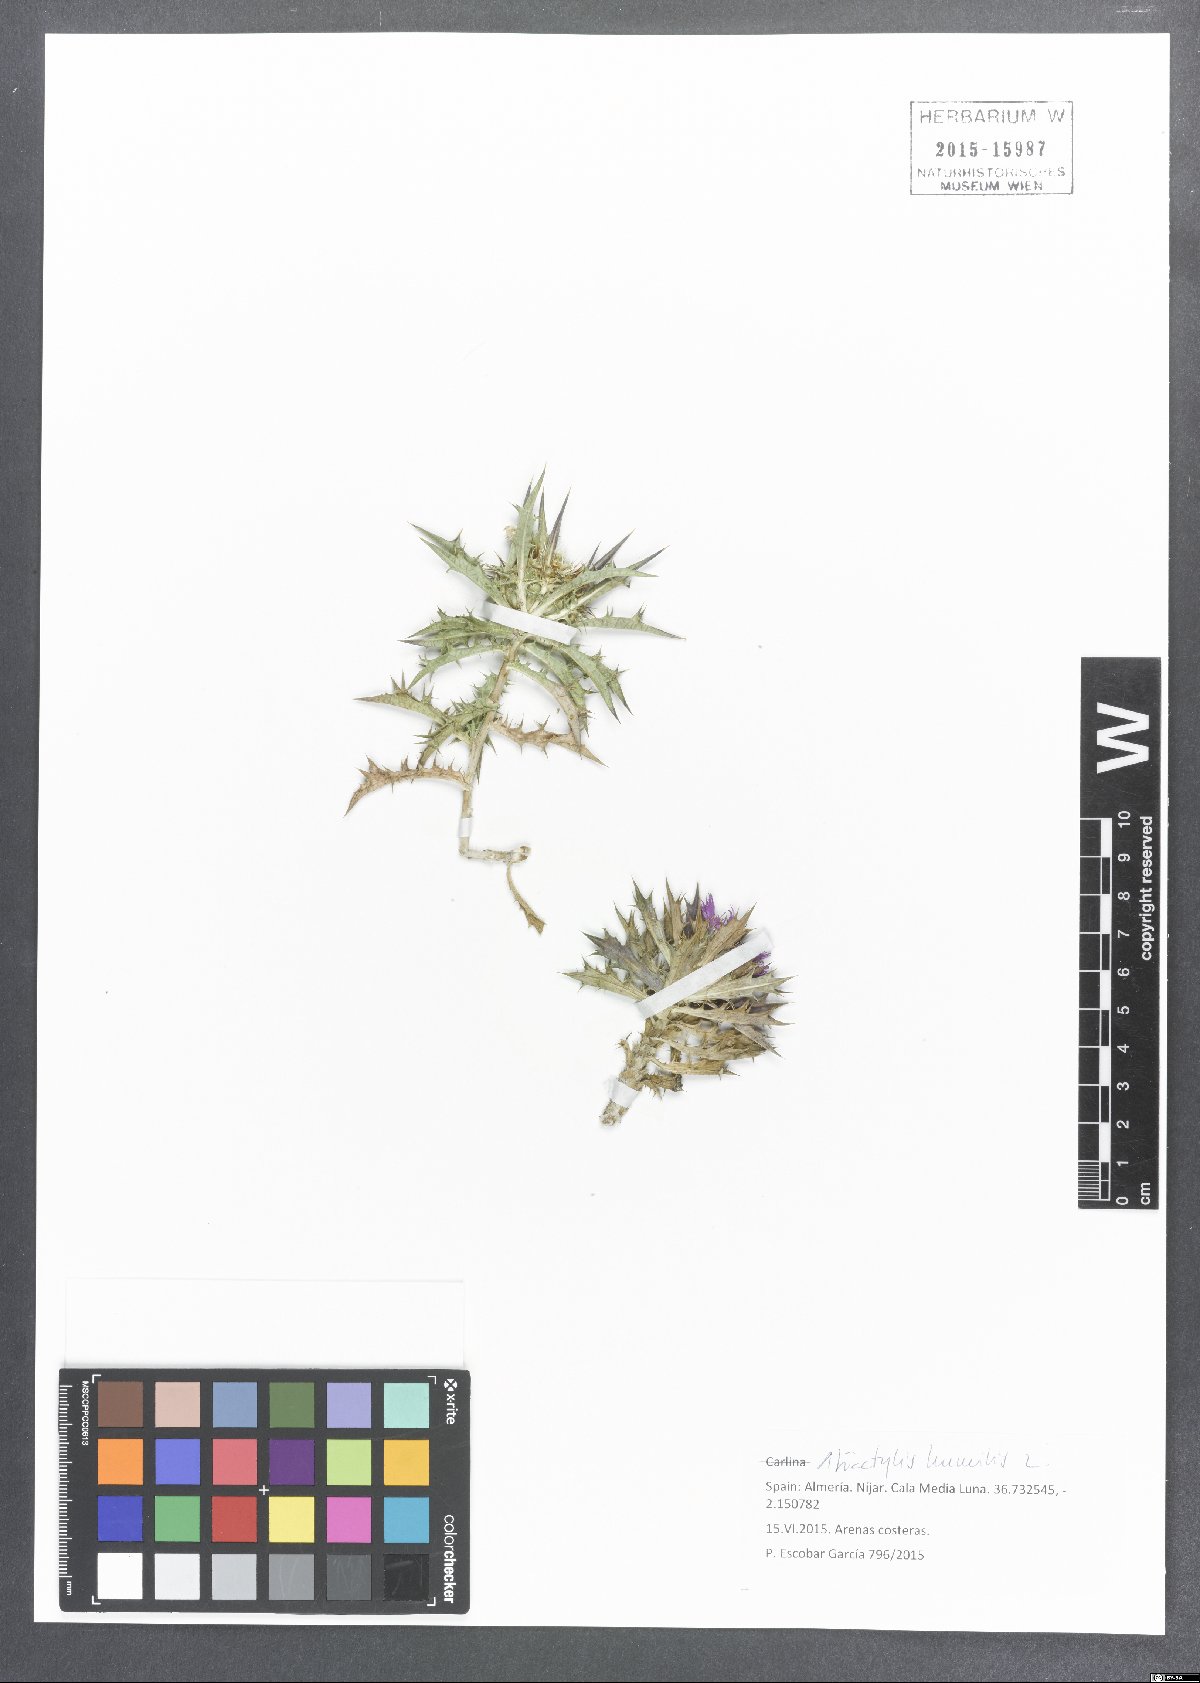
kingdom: Plantae
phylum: Tracheophyta
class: Magnoliopsida
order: Asterales
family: Asteraceae
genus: Atractylis
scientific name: Atractylis humilis
